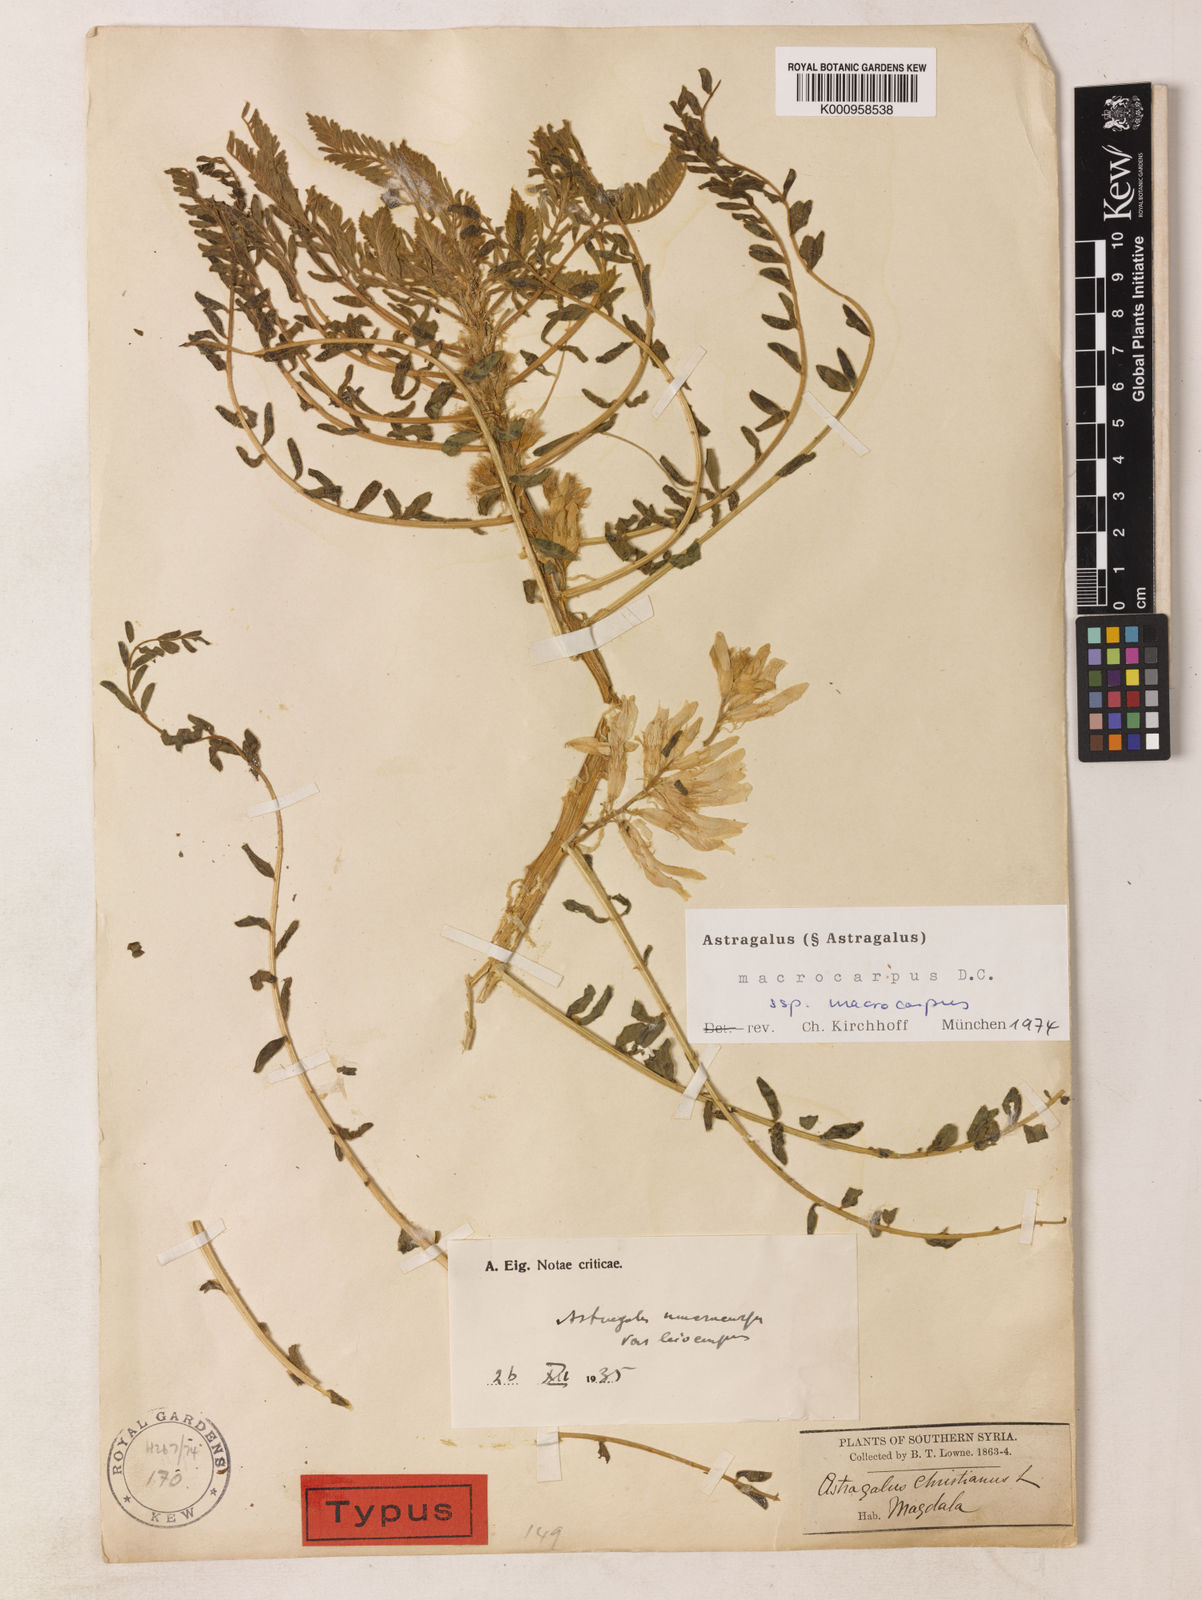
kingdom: Plantae
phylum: Tracheophyta
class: Magnoliopsida
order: Fabales
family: Fabaceae
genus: Astragalus
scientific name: Astragalus macrocarpus
